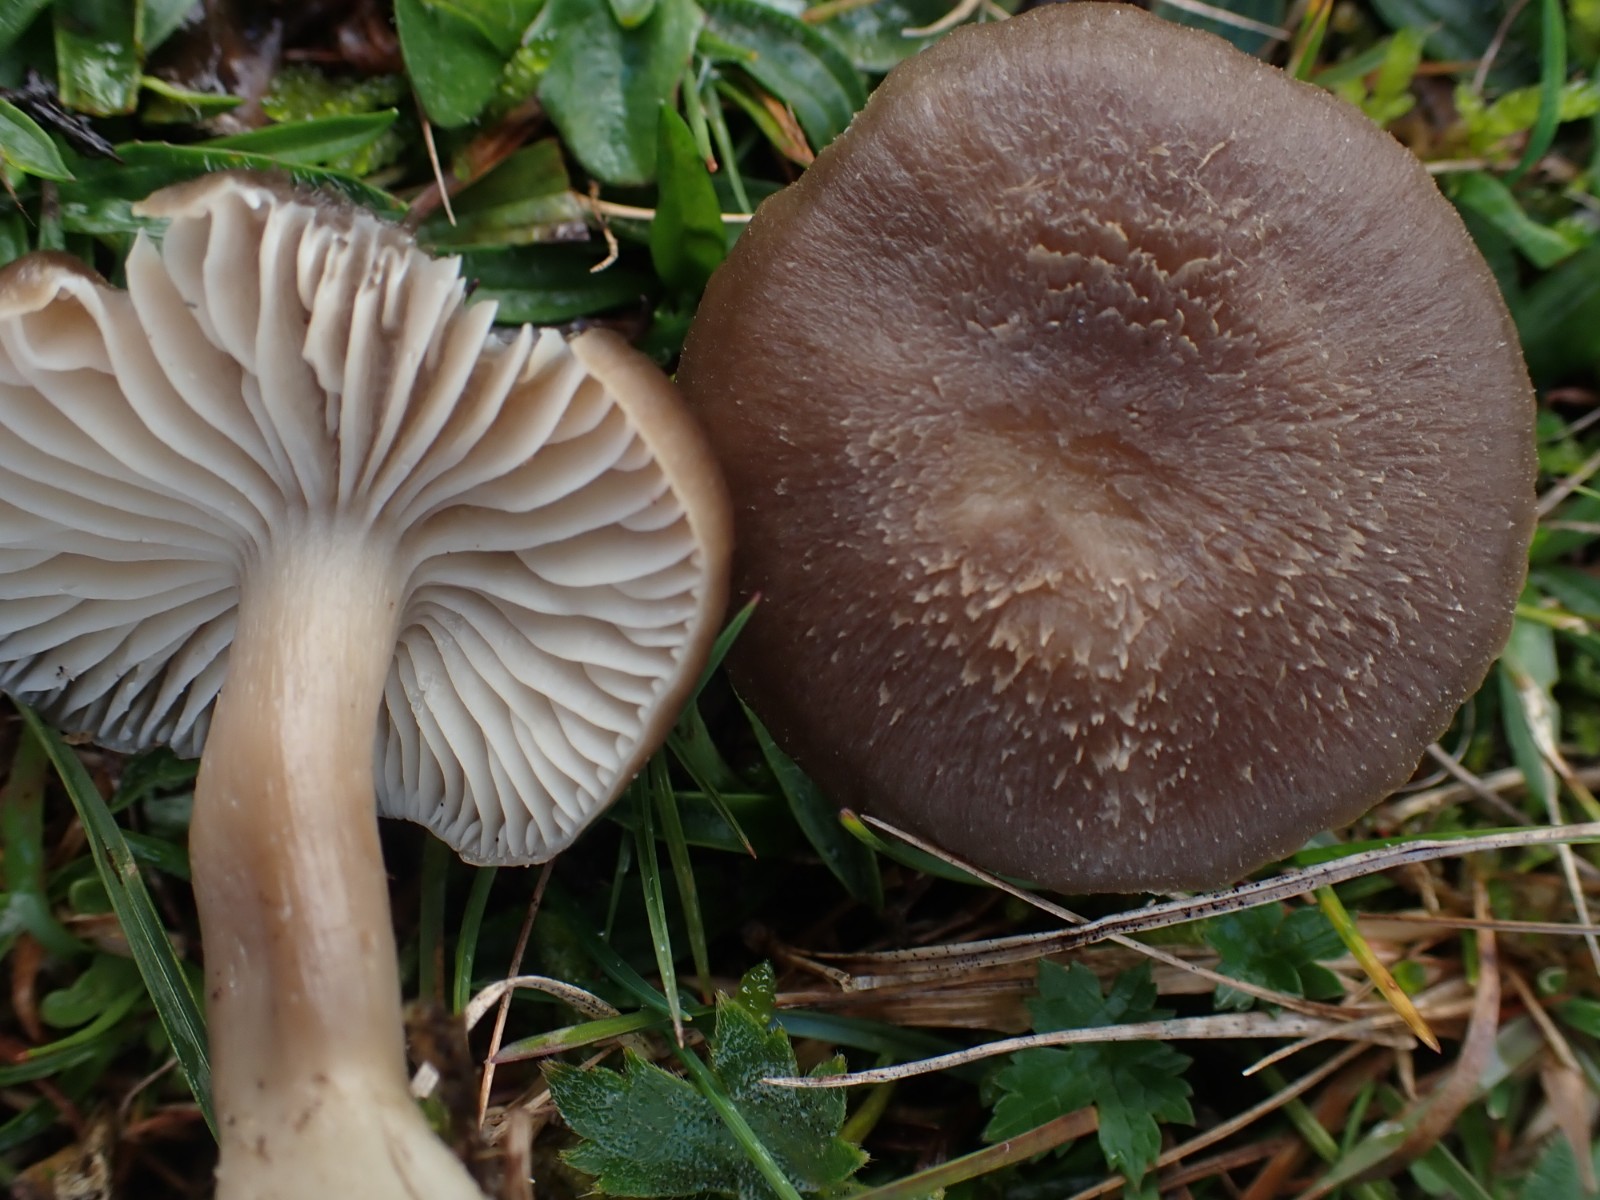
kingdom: Fungi
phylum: Basidiomycota
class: Agaricomycetes
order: Agaricales
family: Hygrophoraceae
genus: Neohygrocybe
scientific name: Neohygrocybe nitrata
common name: stinkende vokshat
